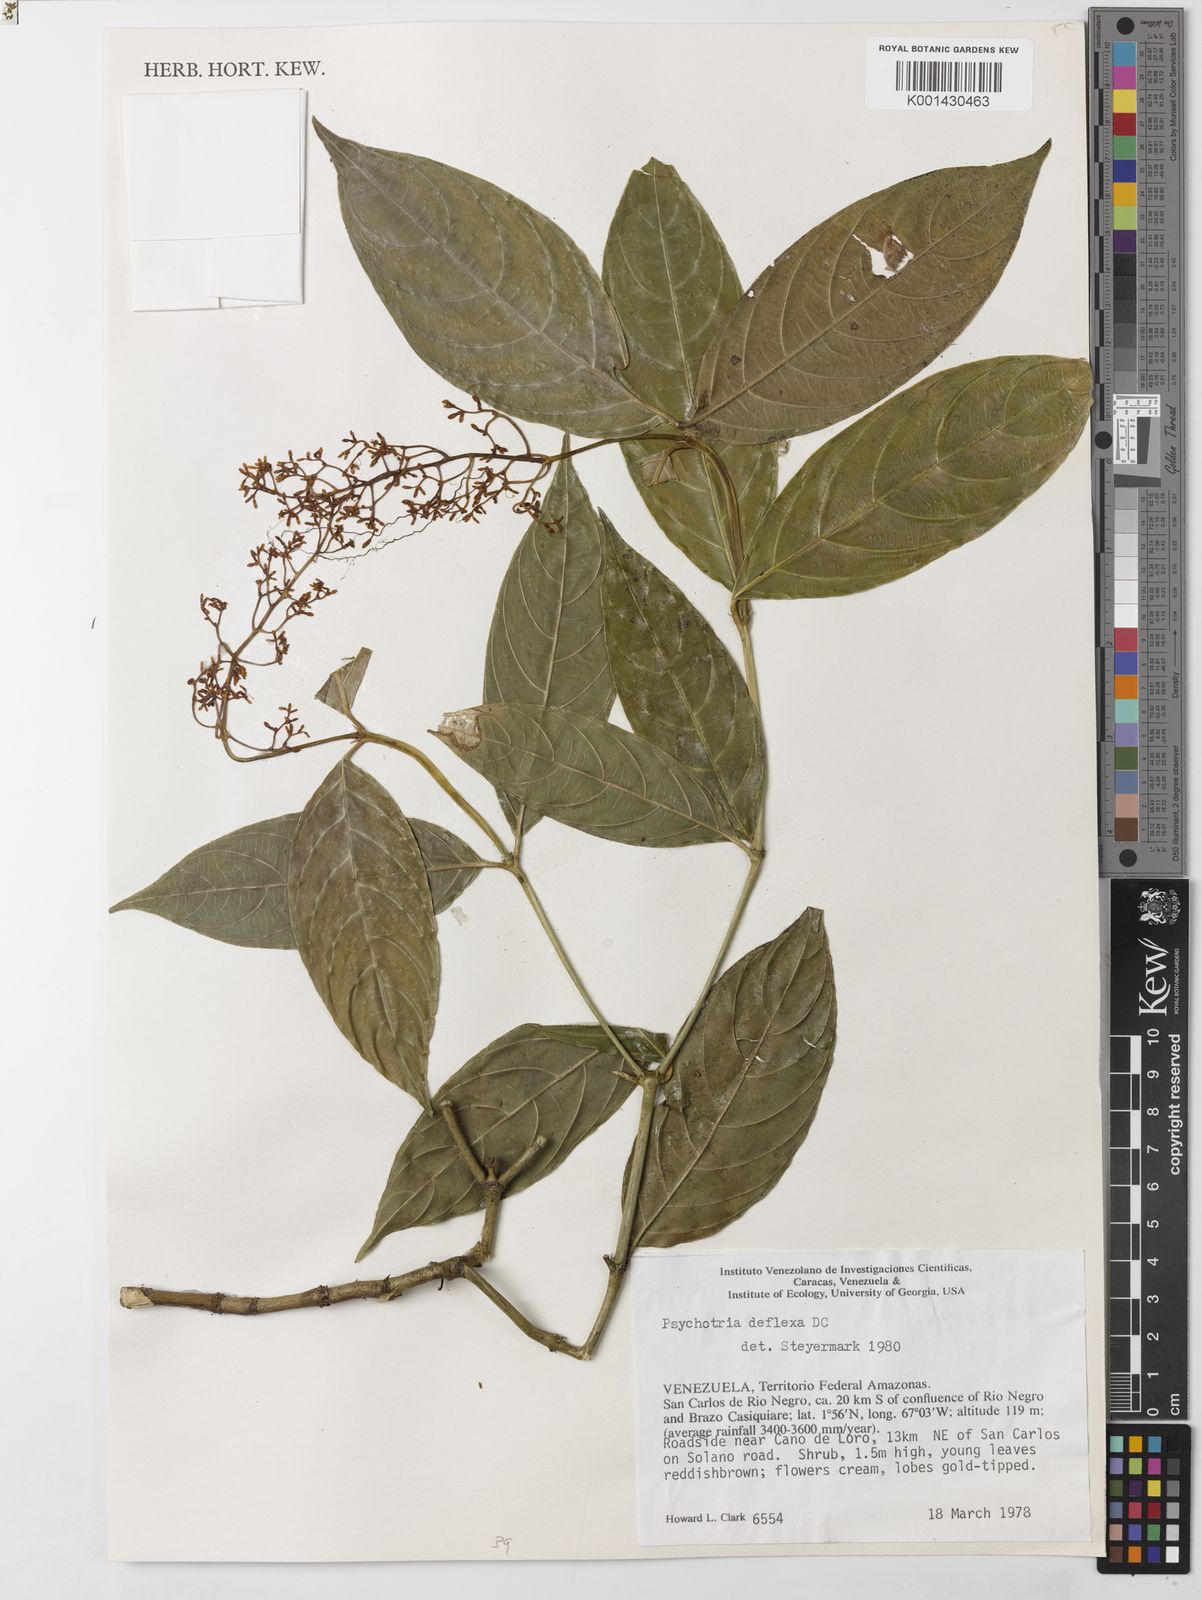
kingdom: Plantae
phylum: Tracheophyta
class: Magnoliopsida
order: Gentianales
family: Rubiaceae
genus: Palicourea
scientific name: Palicourea deflexa
